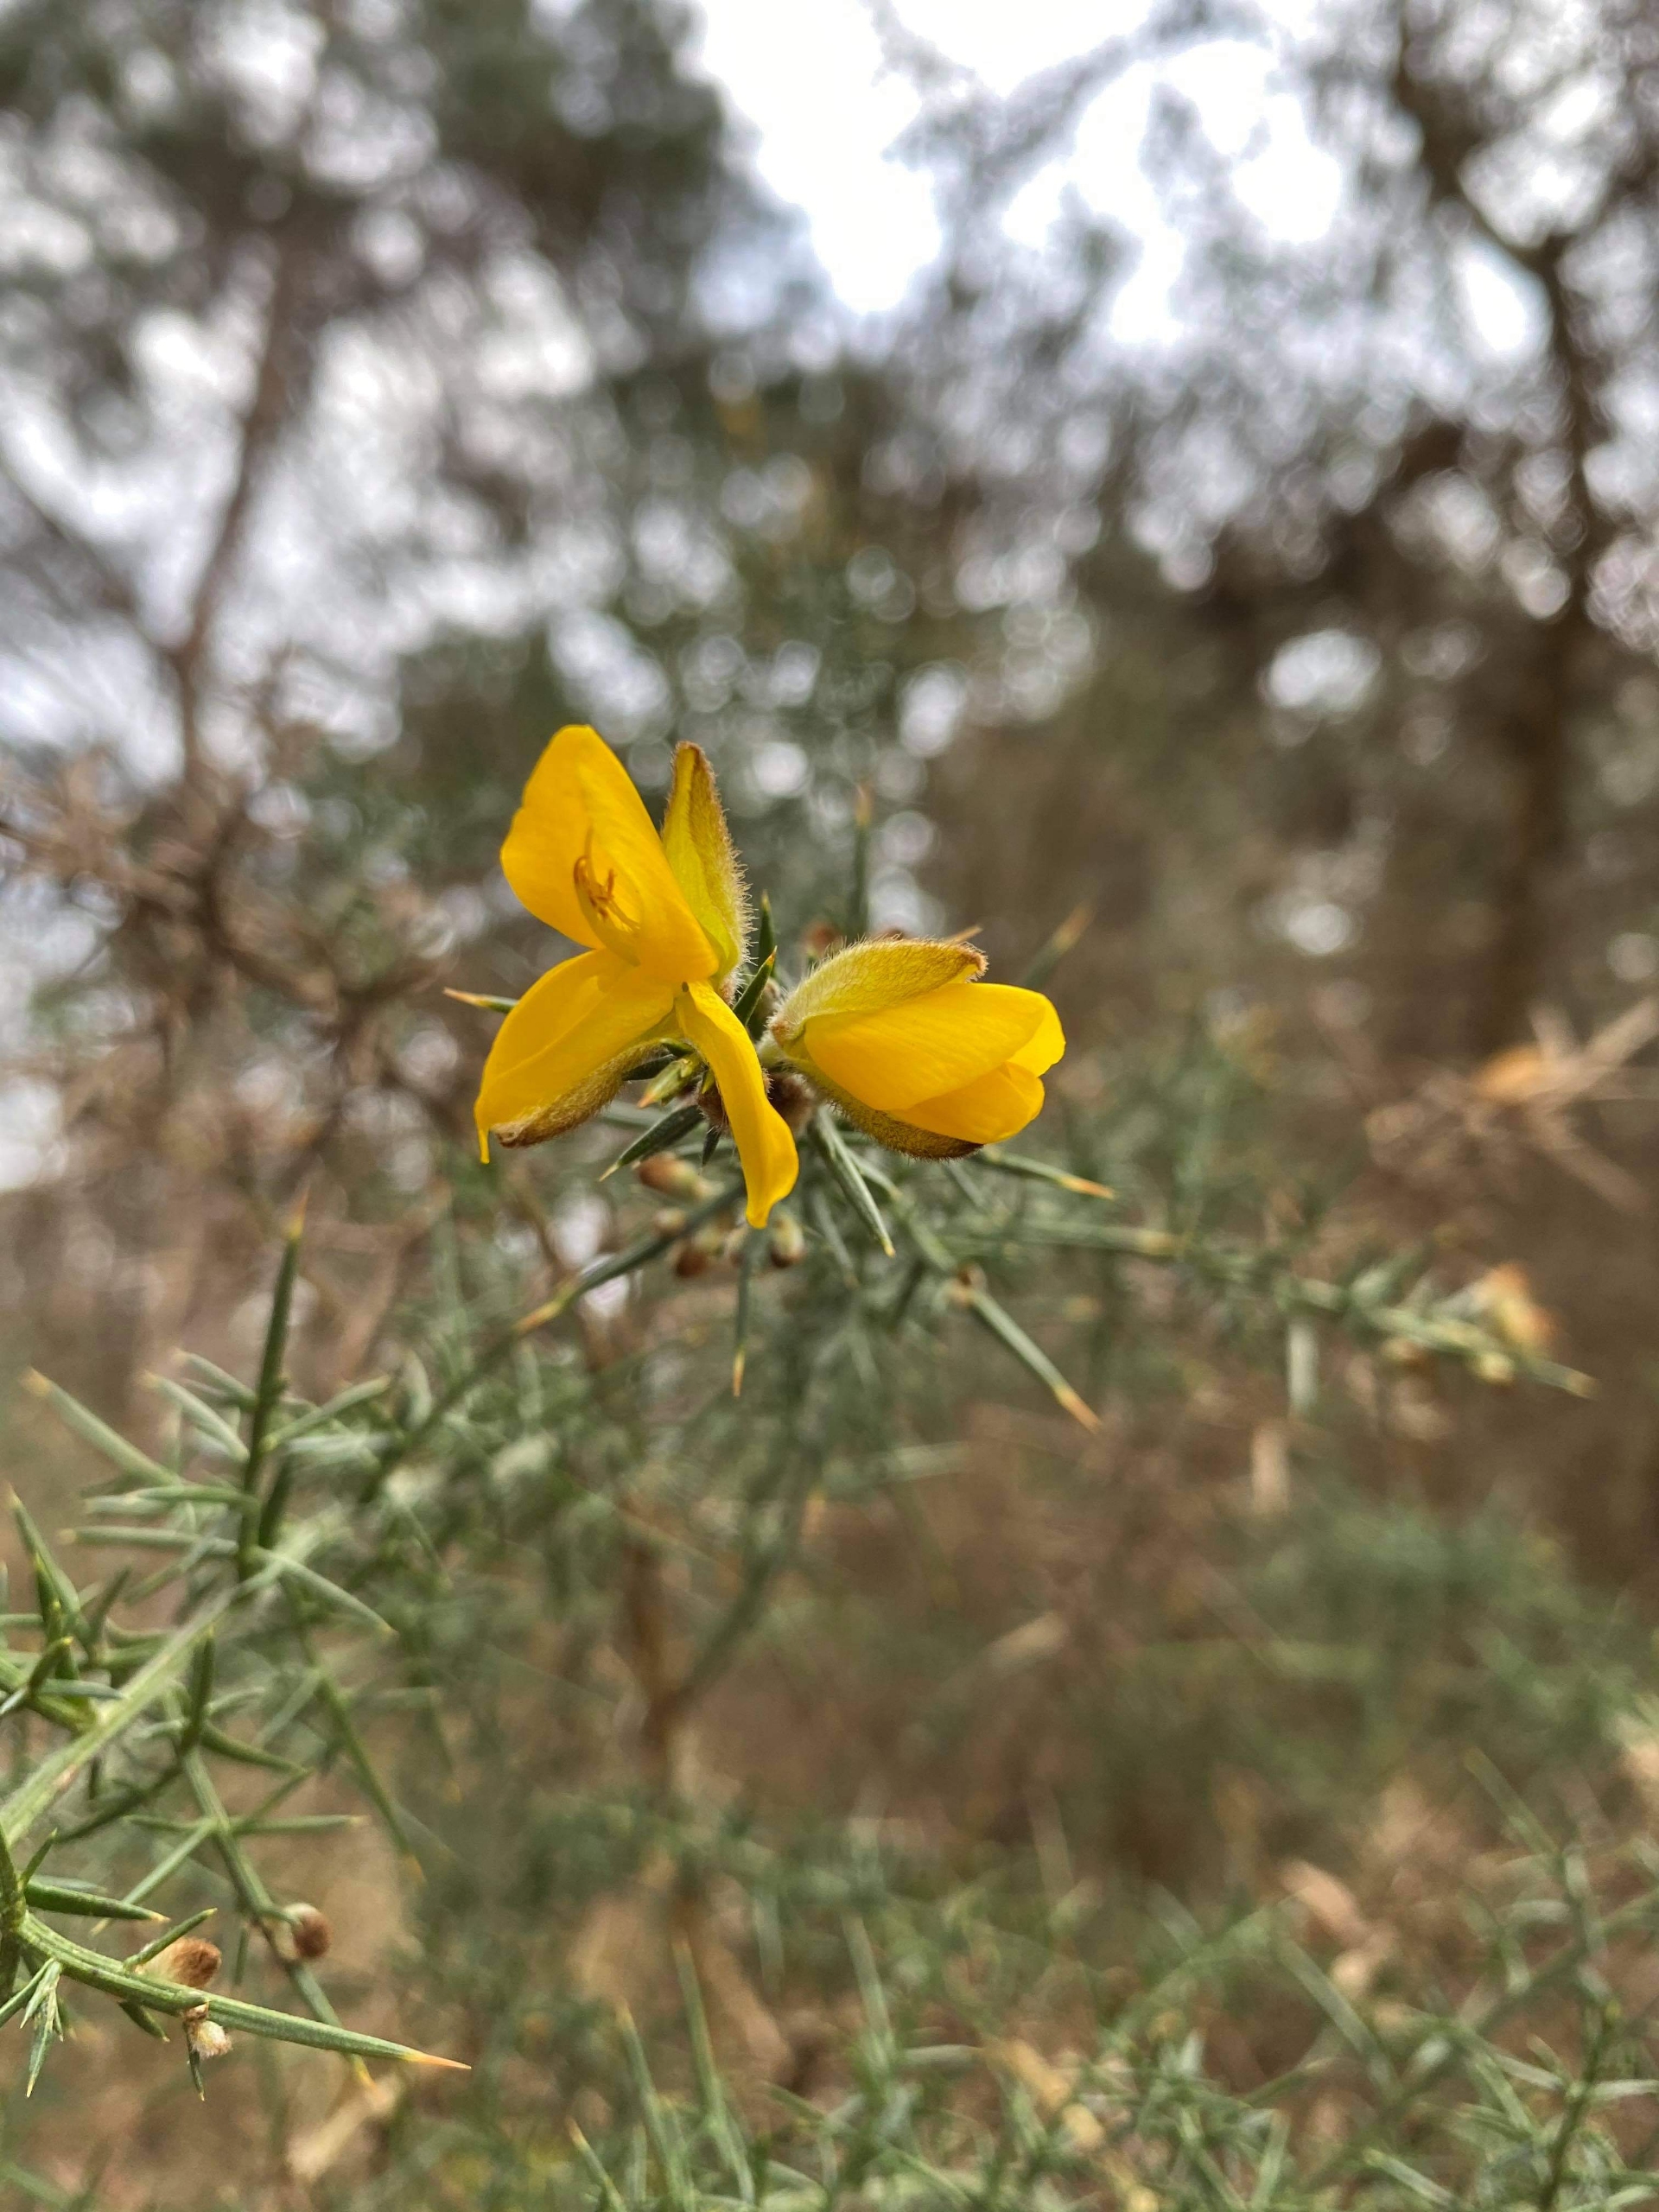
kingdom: Plantae
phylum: Tracheophyta
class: Magnoliopsida
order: Fabales
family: Fabaceae
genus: Ulex
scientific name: Ulex europaeus
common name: Tornblad
